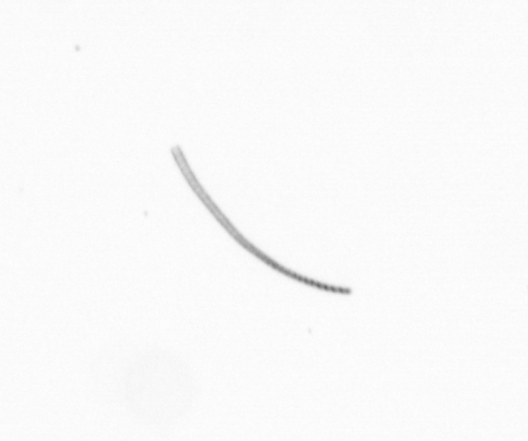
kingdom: Chromista
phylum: Ochrophyta
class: Bacillariophyceae
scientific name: Bacillariophyceae
